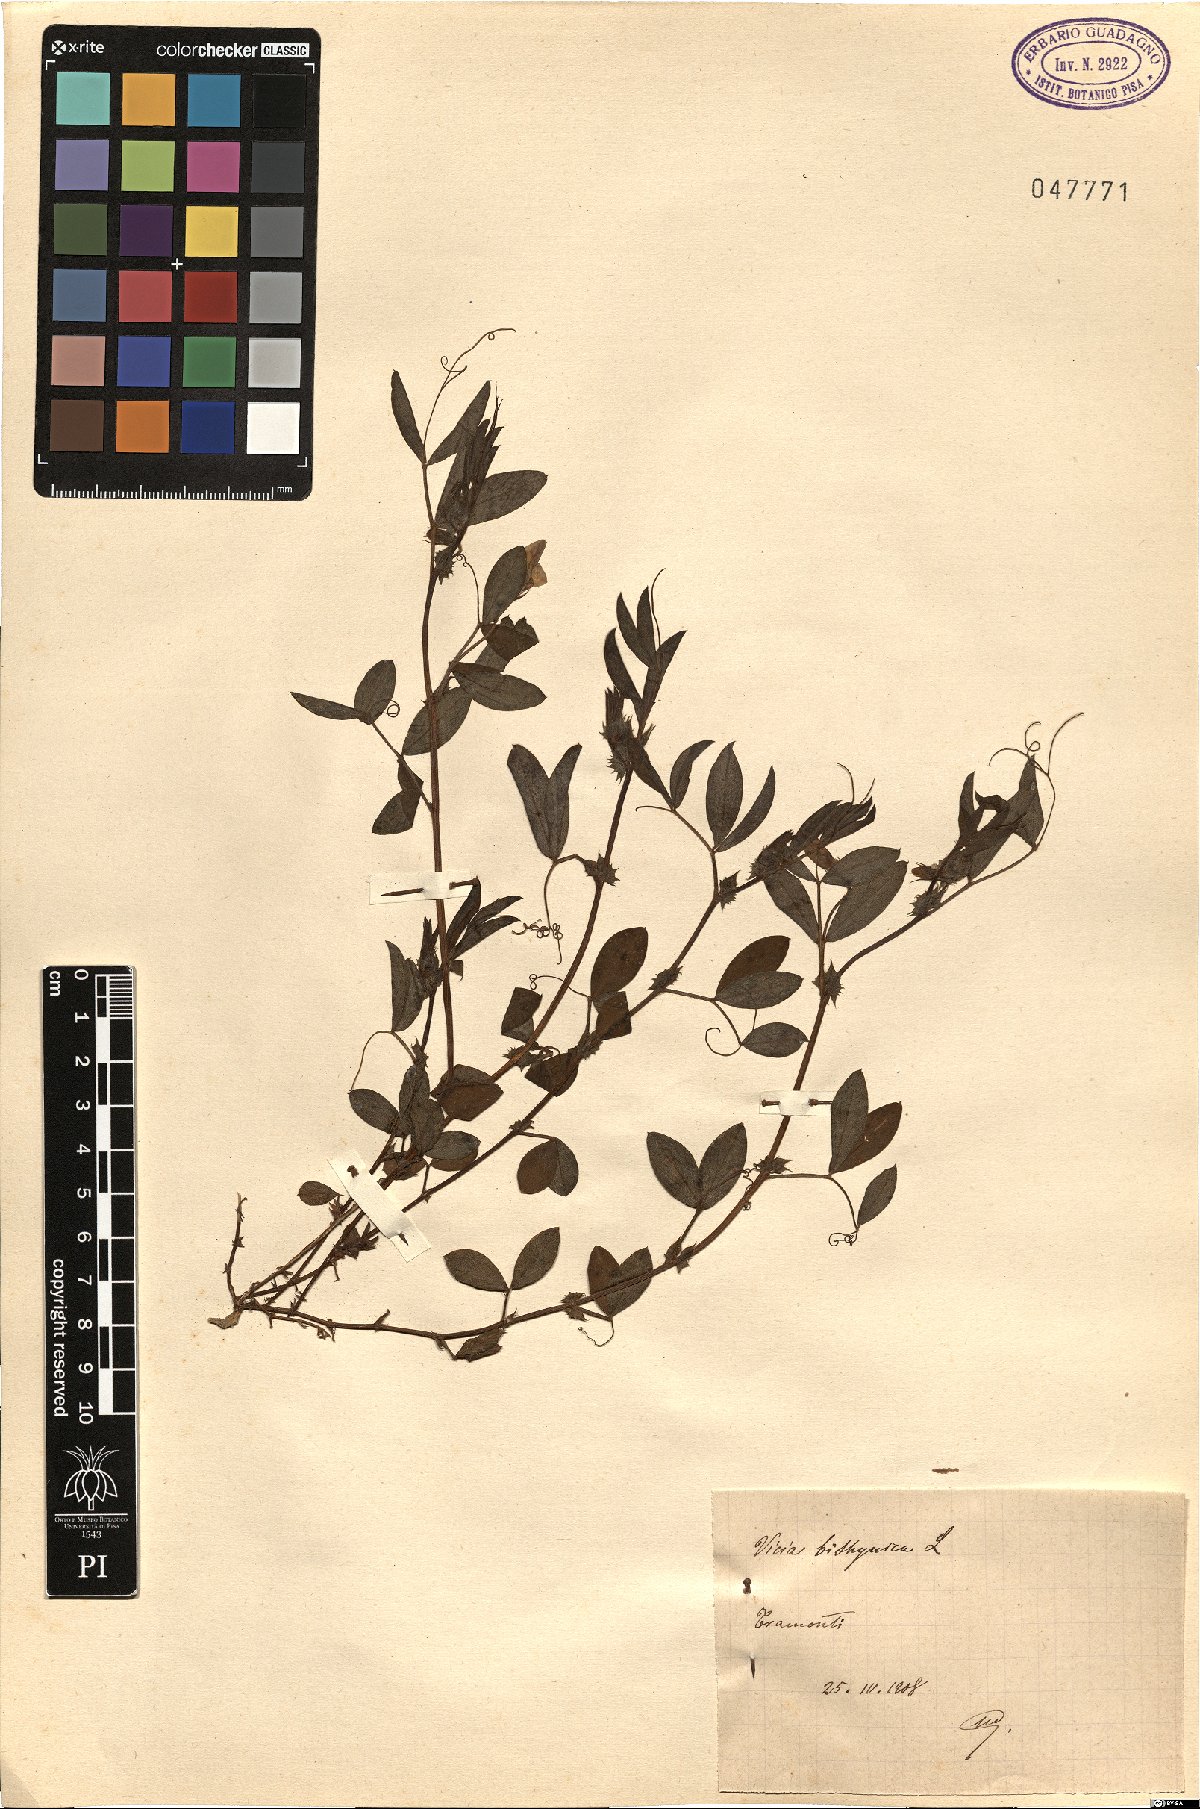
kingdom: Plantae
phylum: Tracheophyta
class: Magnoliopsida
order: Fabales
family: Fabaceae
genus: Vicia
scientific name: Vicia bithynica
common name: Bithynian vetch
